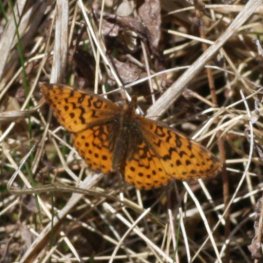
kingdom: Animalia
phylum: Arthropoda
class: Insecta
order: Lepidoptera
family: Nymphalidae
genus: Clossiana
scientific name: Clossiana toddi
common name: Meadow Fritillary
